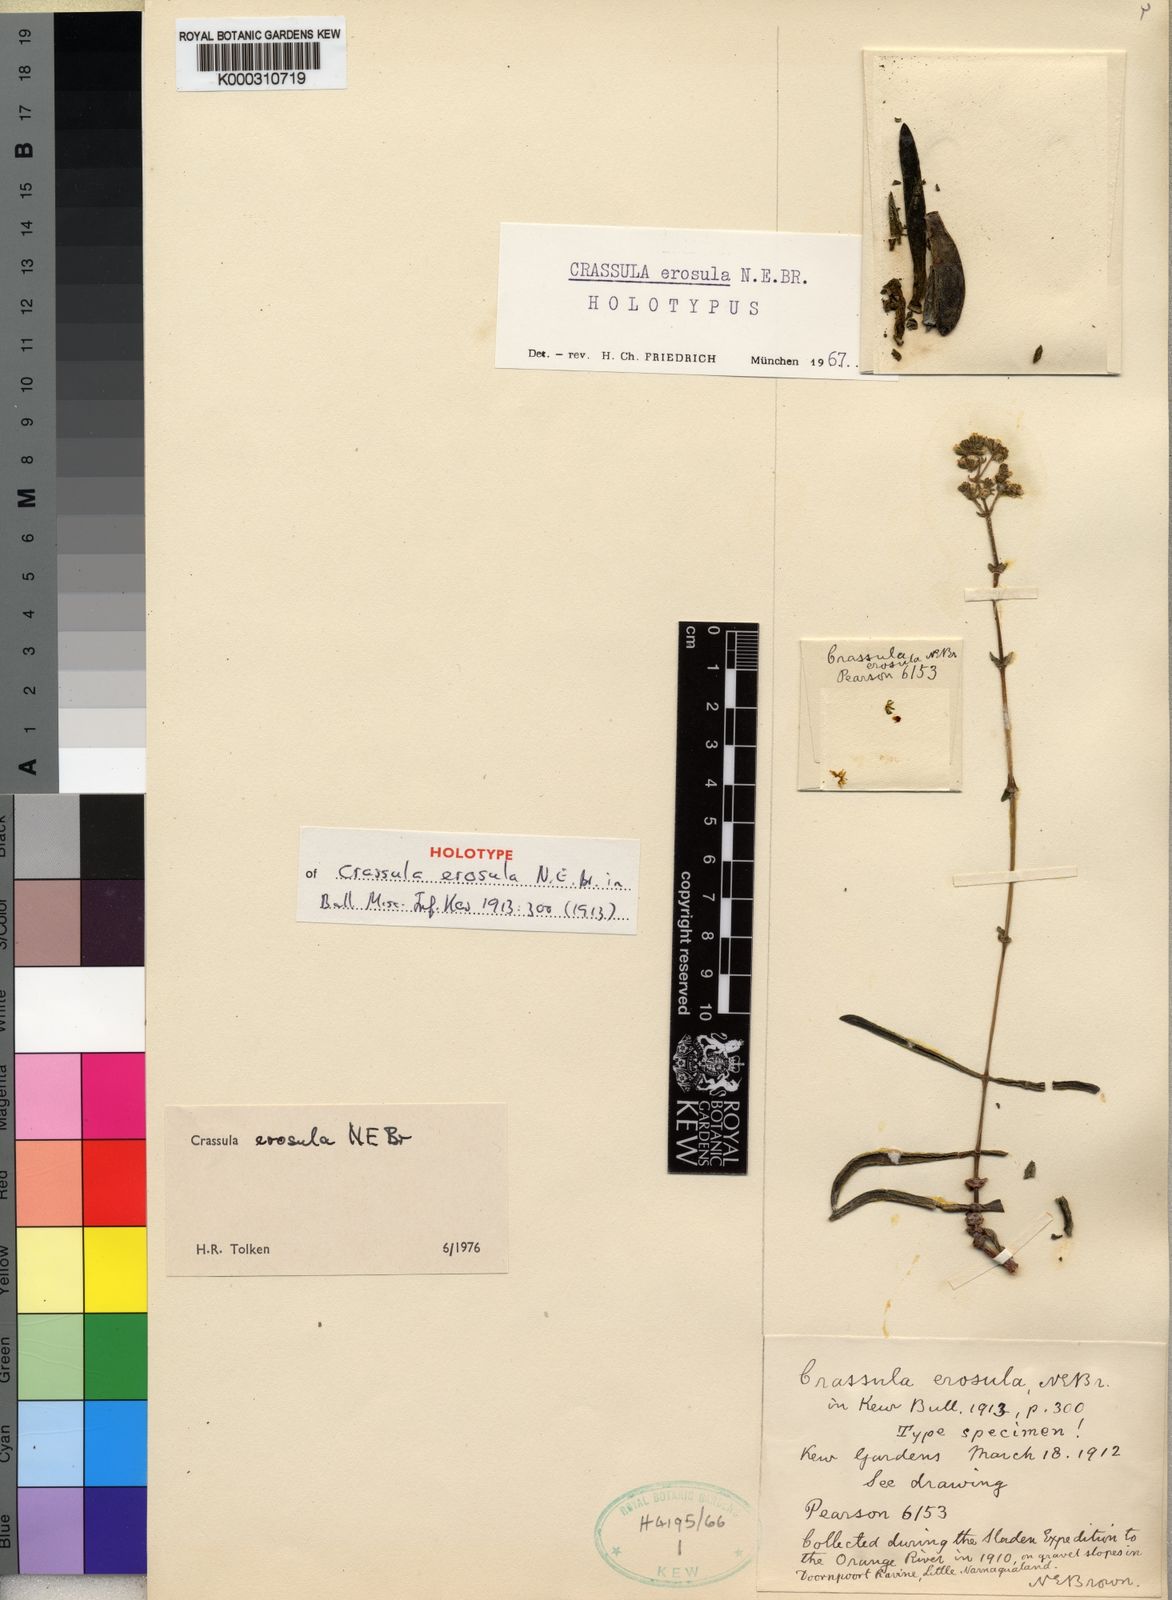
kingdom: Plantae
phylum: Tracheophyta
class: Magnoliopsida
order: Saxifragales
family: Crassulaceae
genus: Crassula
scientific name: Crassula subacaulis
